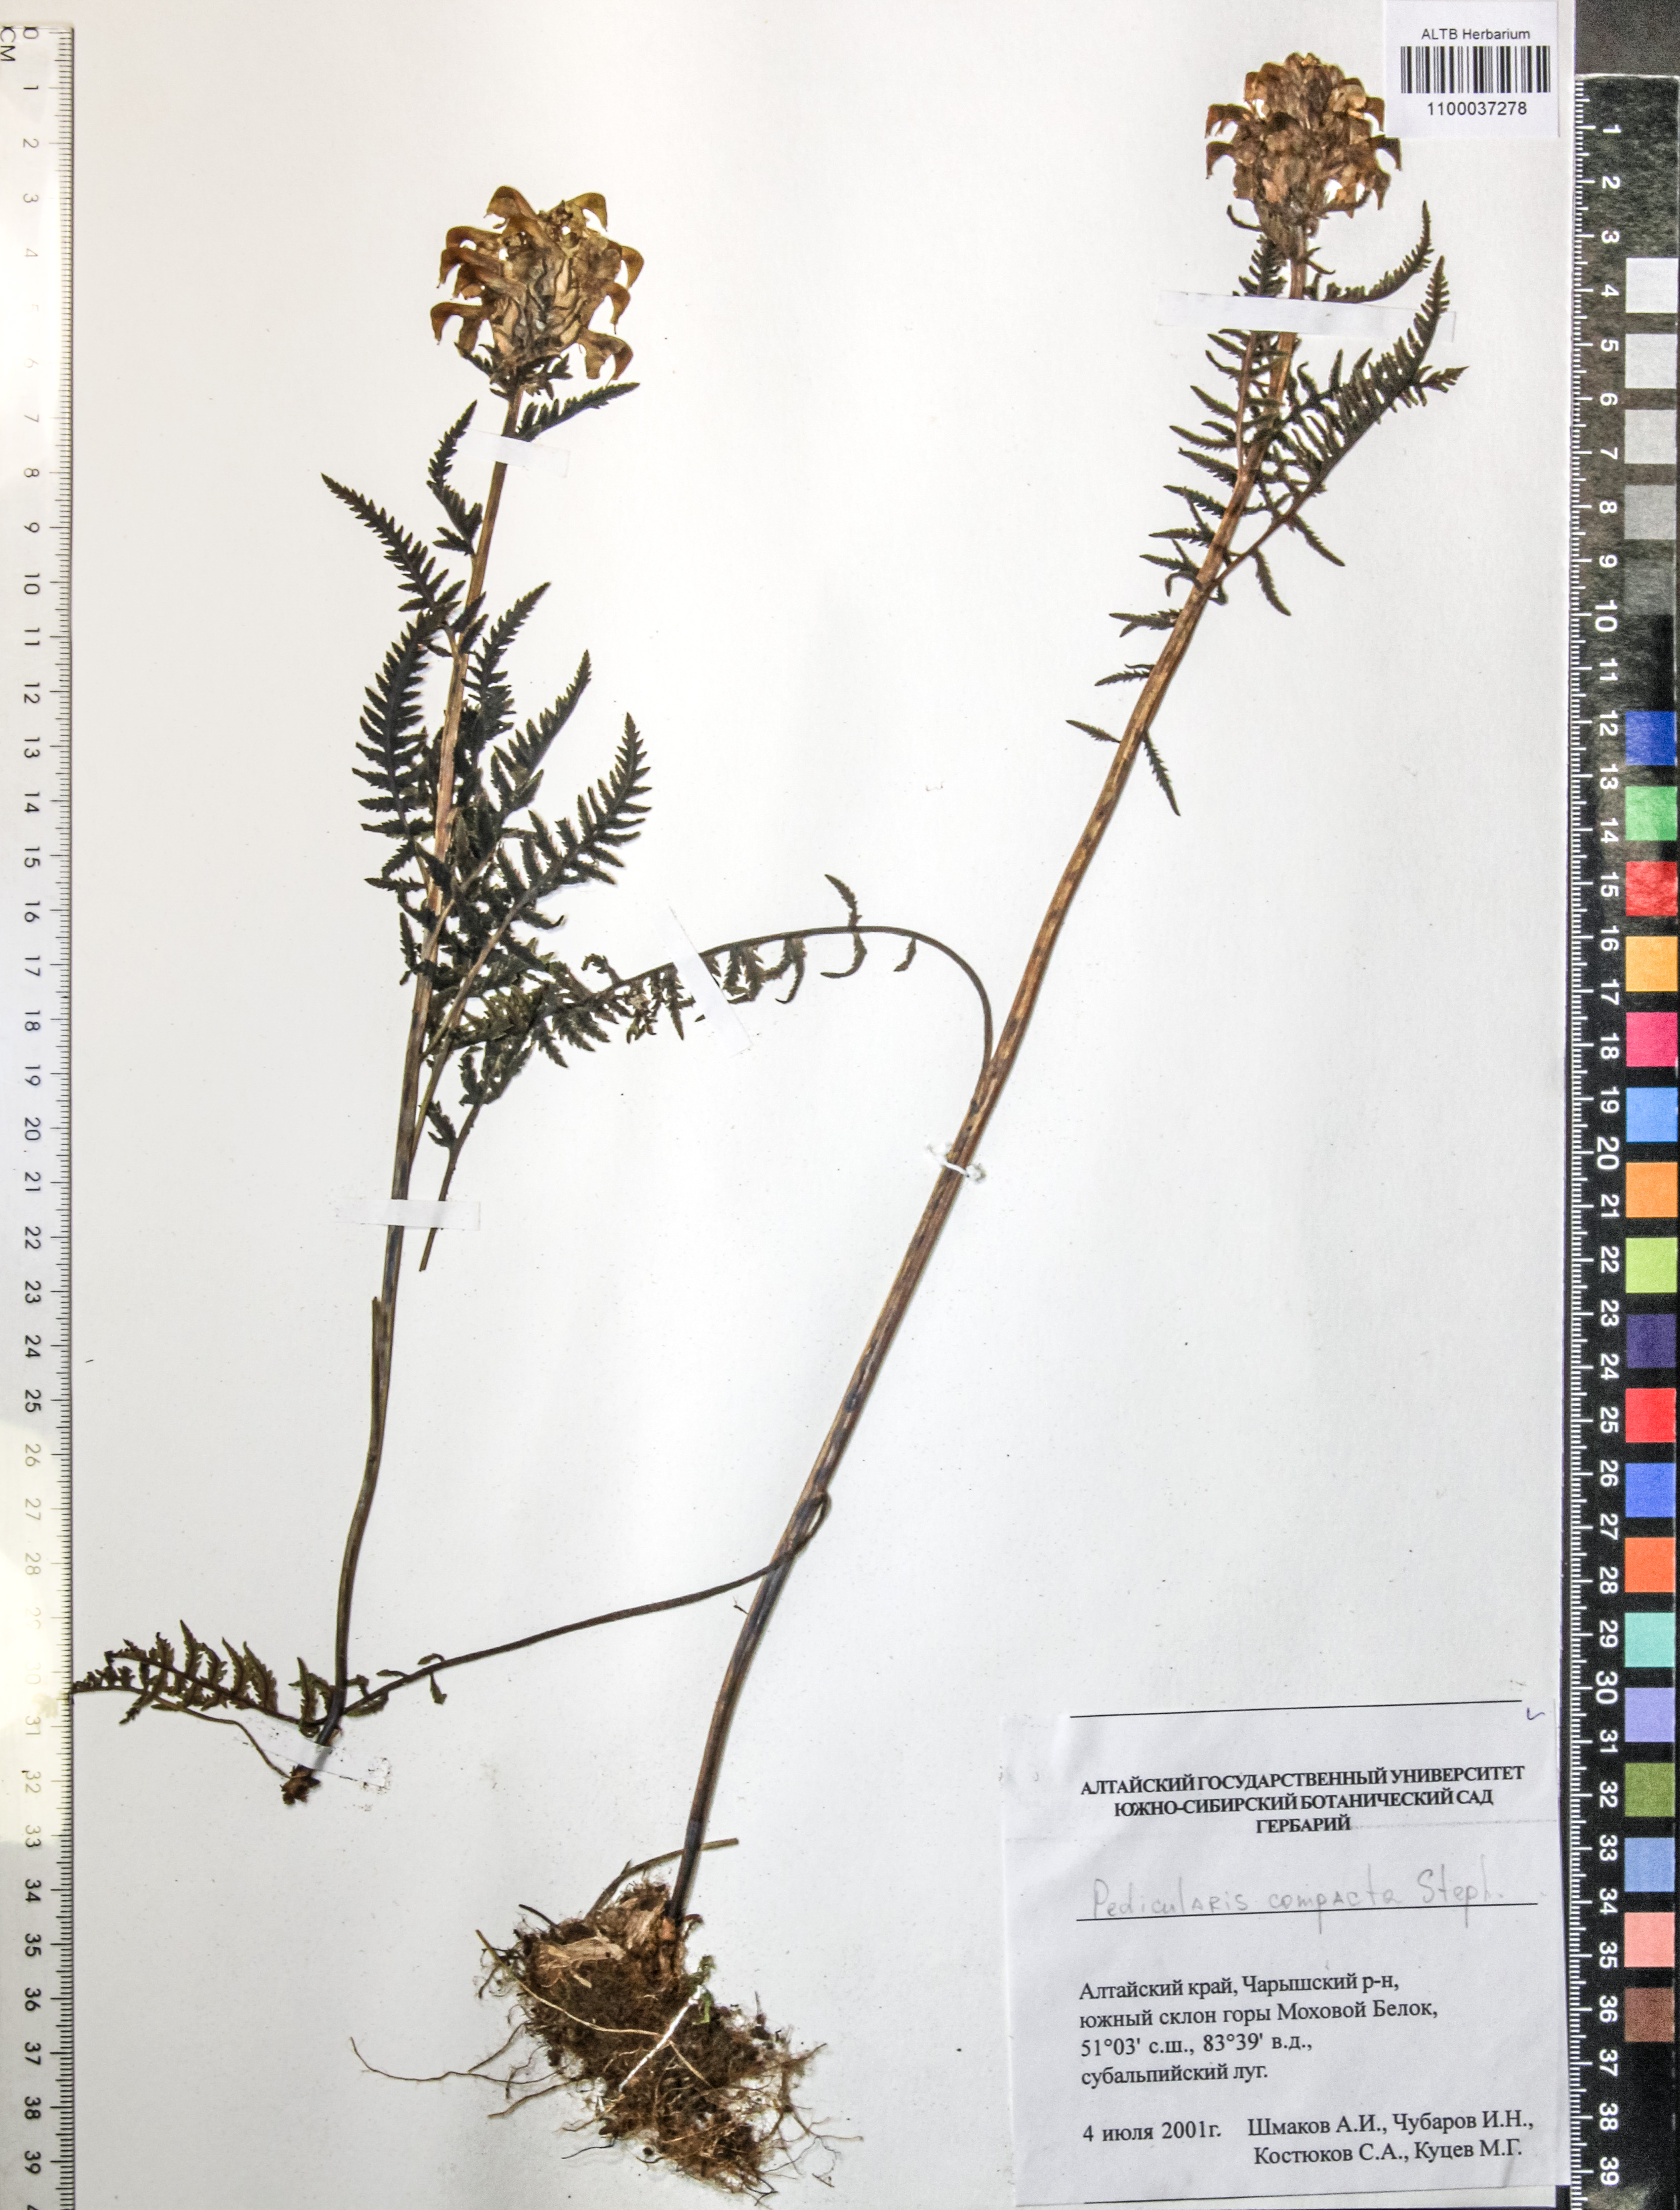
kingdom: Plantae
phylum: Tracheophyta
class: Magnoliopsida
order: Lamiales
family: Orobanchaceae
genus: Pedicularis
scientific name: Pedicularis compacta
